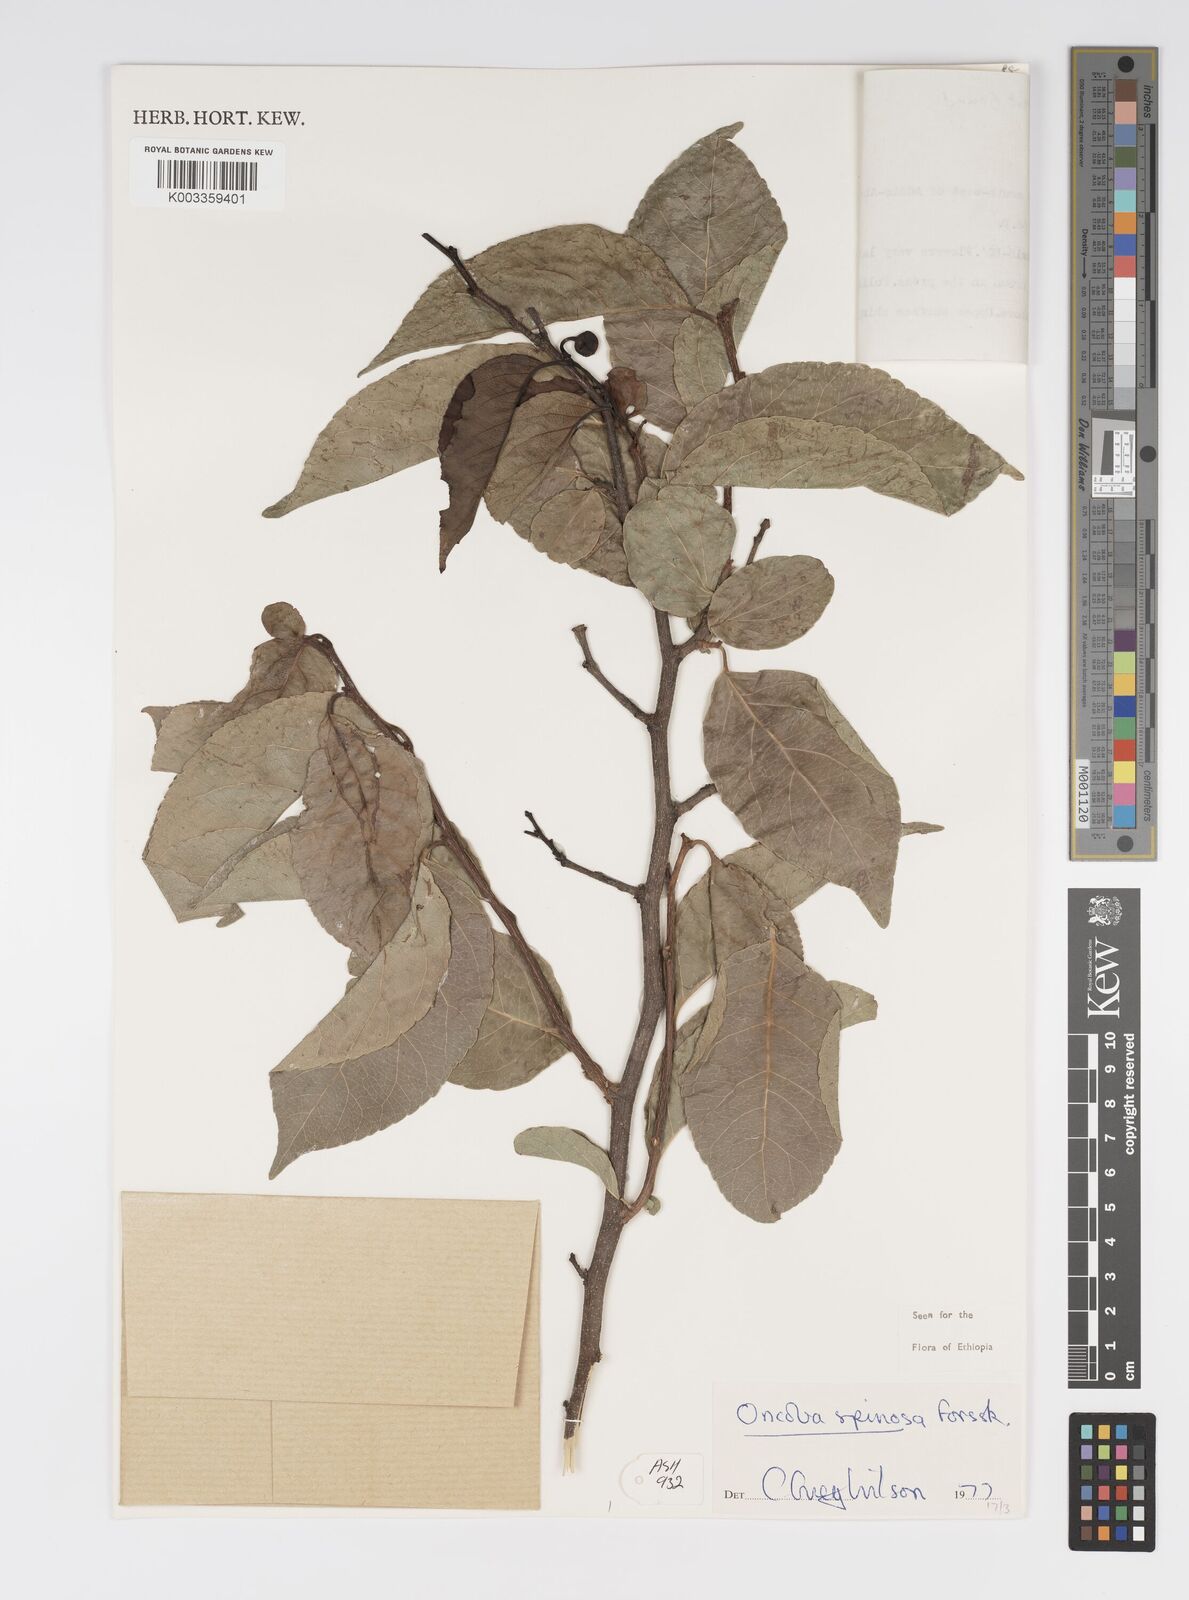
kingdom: Plantae
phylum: Tracheophyta
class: Magnoliopsida
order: Malpighiales
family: Salicaceae
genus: Oncoba
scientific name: Oncoba spinosa
